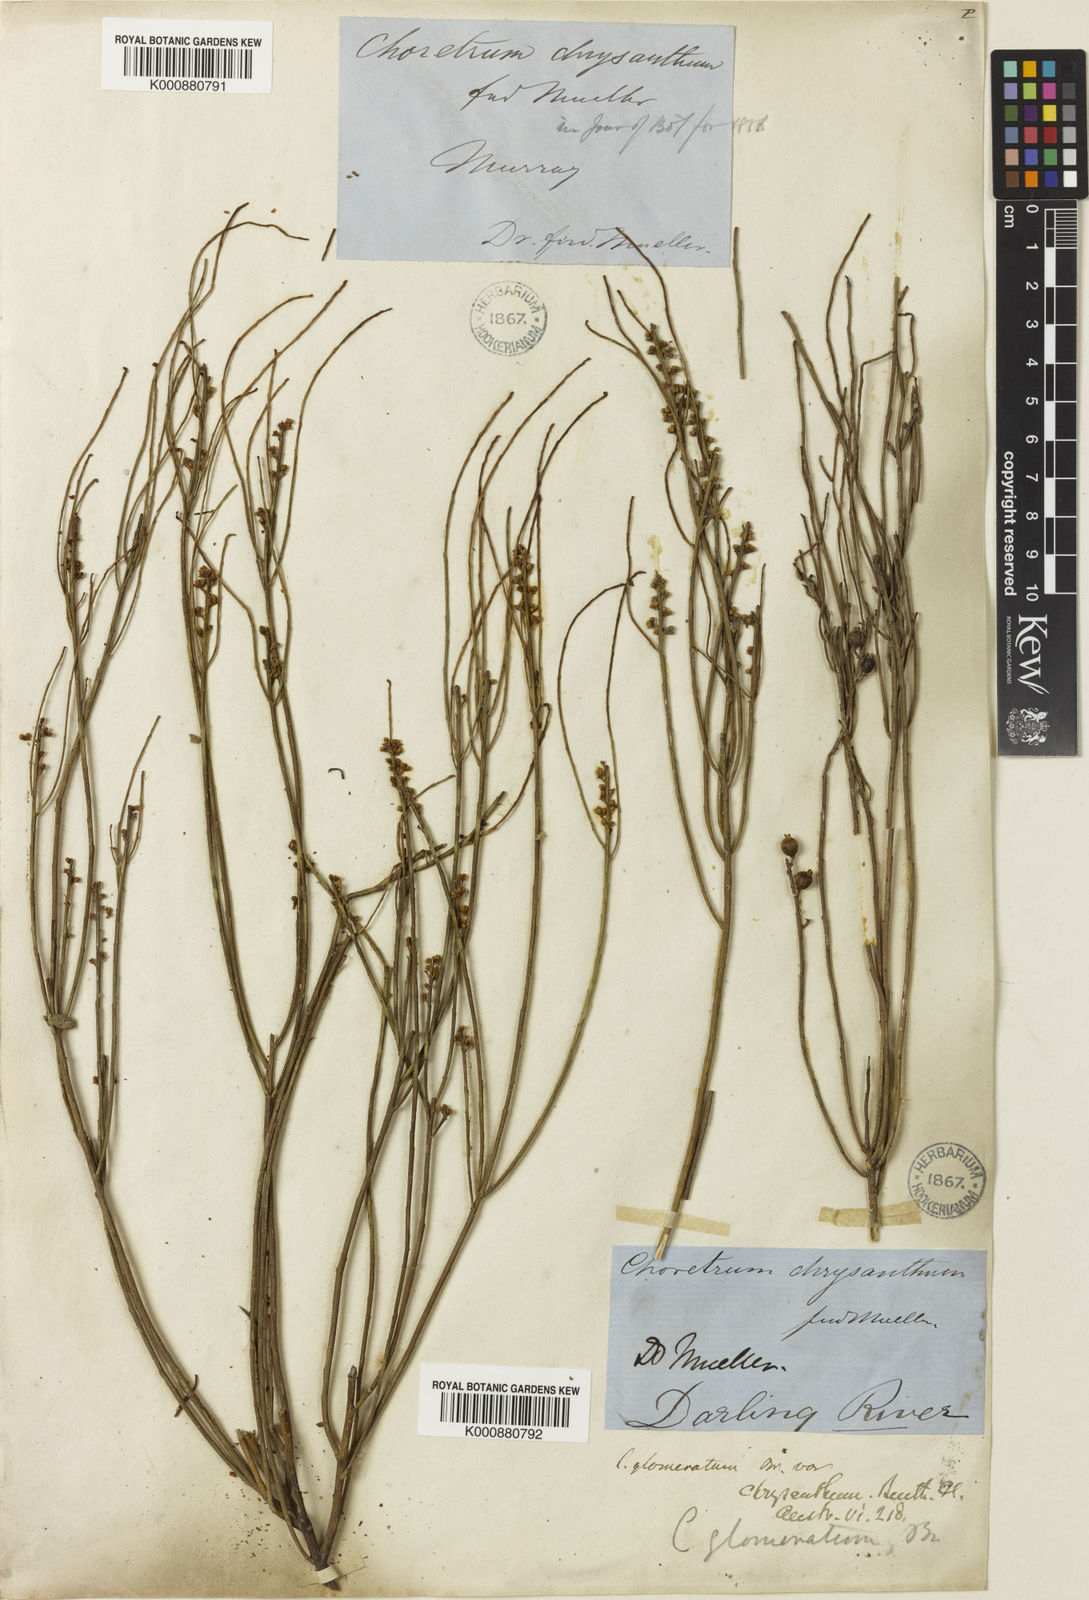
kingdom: Plantae
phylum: Tracheophyta
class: Magnoliopsida
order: Santalales
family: Amphorogynaceae
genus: Choretrum
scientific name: Choretrum glomeratum
